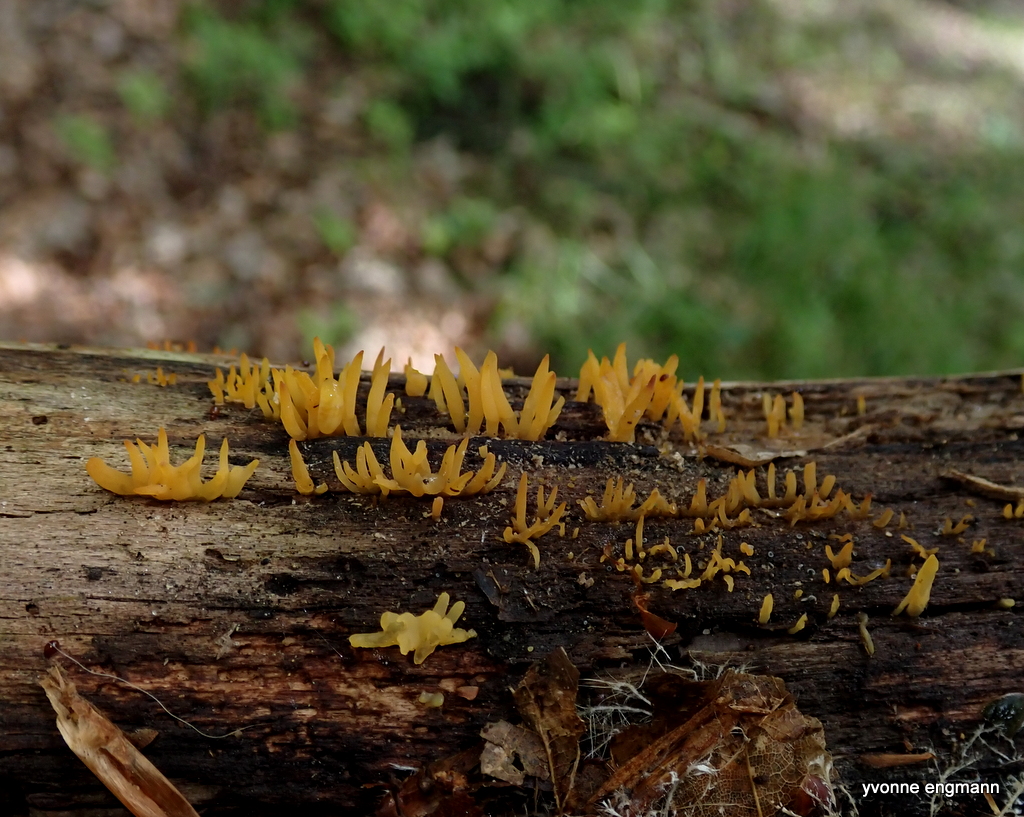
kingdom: Fungi
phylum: Basidiomycota
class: Dacrymycetes
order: Dacrymycetales
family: Dacrymycetaceae
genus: Calocera
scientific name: Calocera cornea
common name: liden guldgaffel
